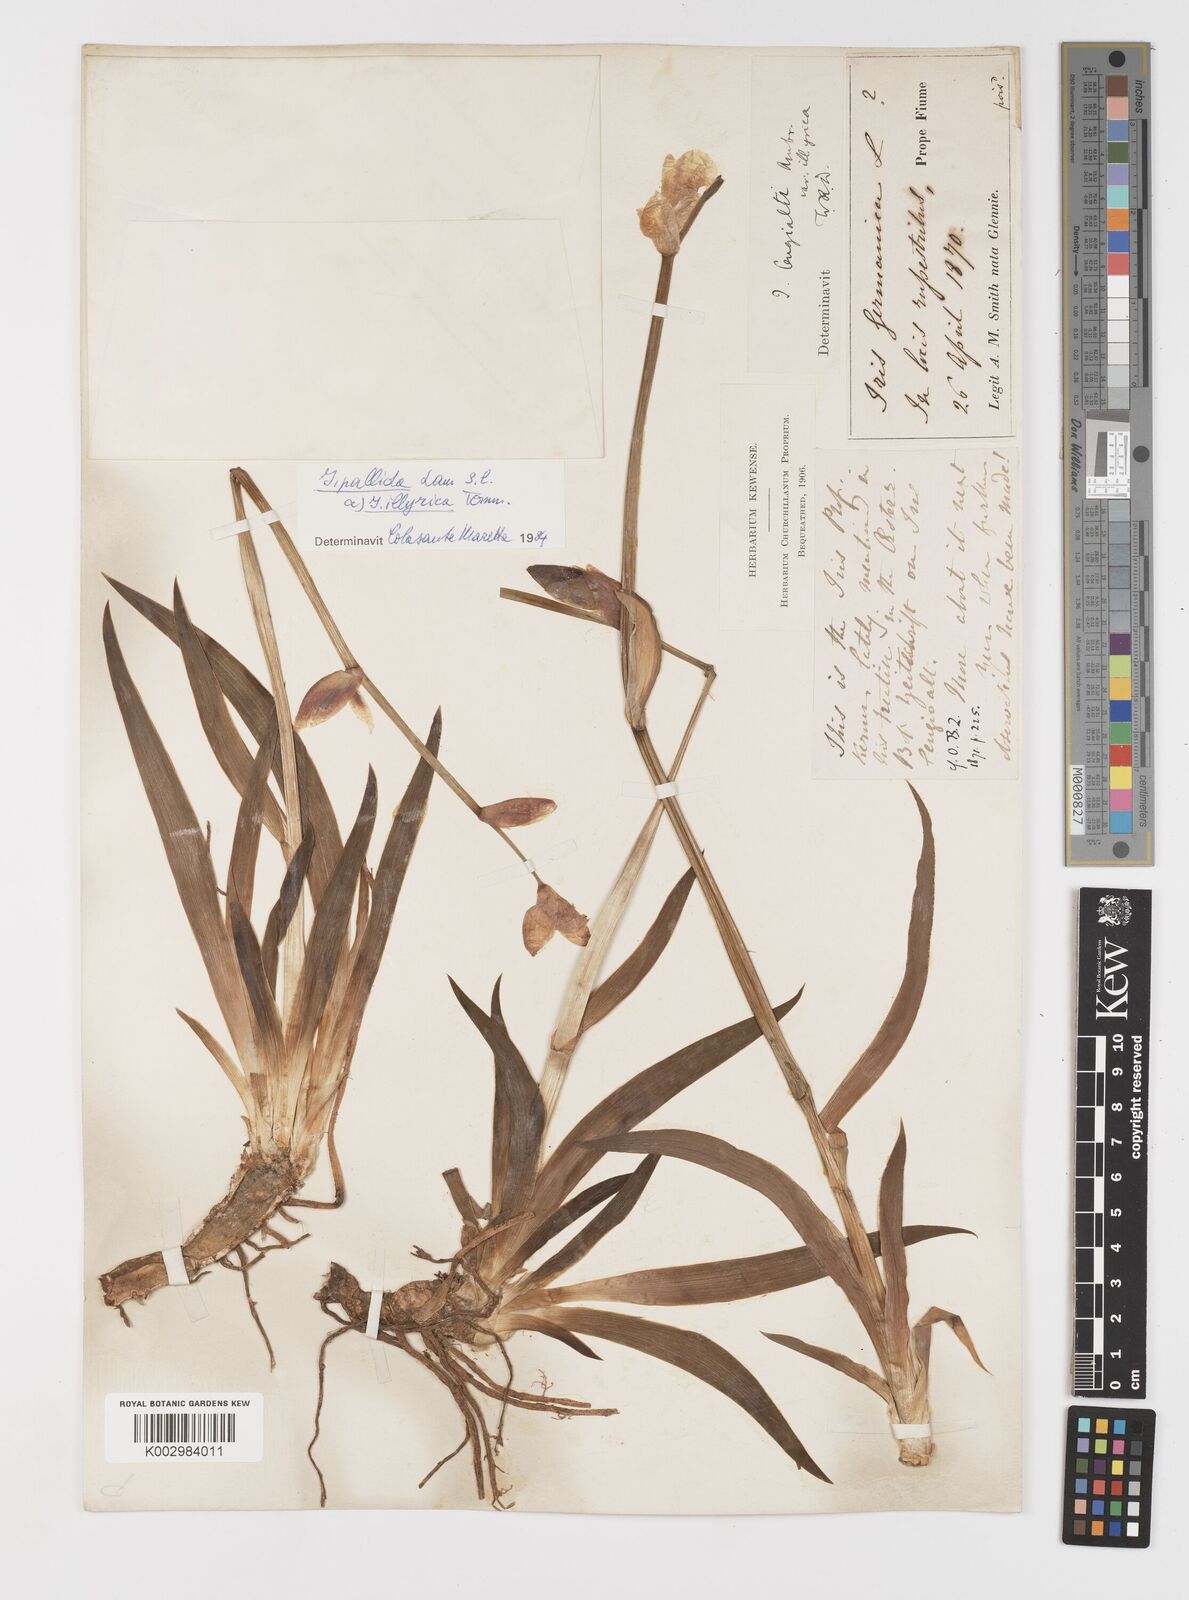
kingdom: Plantae
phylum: Tracheophyta
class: Liliopsida
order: Asparagales
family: Iridaceae
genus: Iris
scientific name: Iris pallida
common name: Sweet iris
